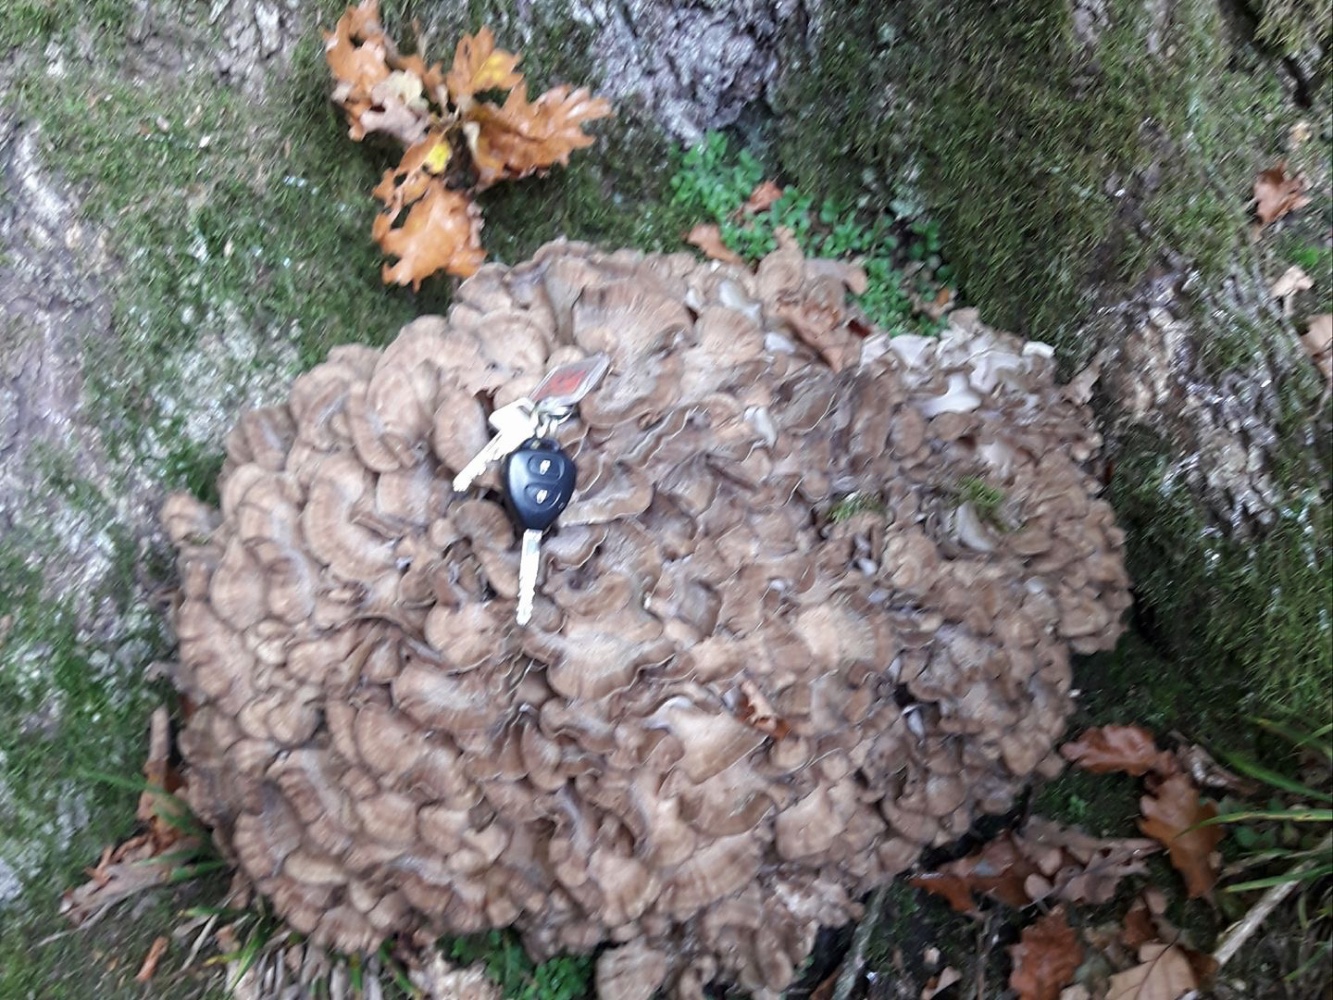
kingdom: Fungi
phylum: Basidiomycota
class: Agaricomycetes
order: Polyporales
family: Grifolaceae
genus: Grifola
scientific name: Grifola frondosa
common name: tueporesvamp
